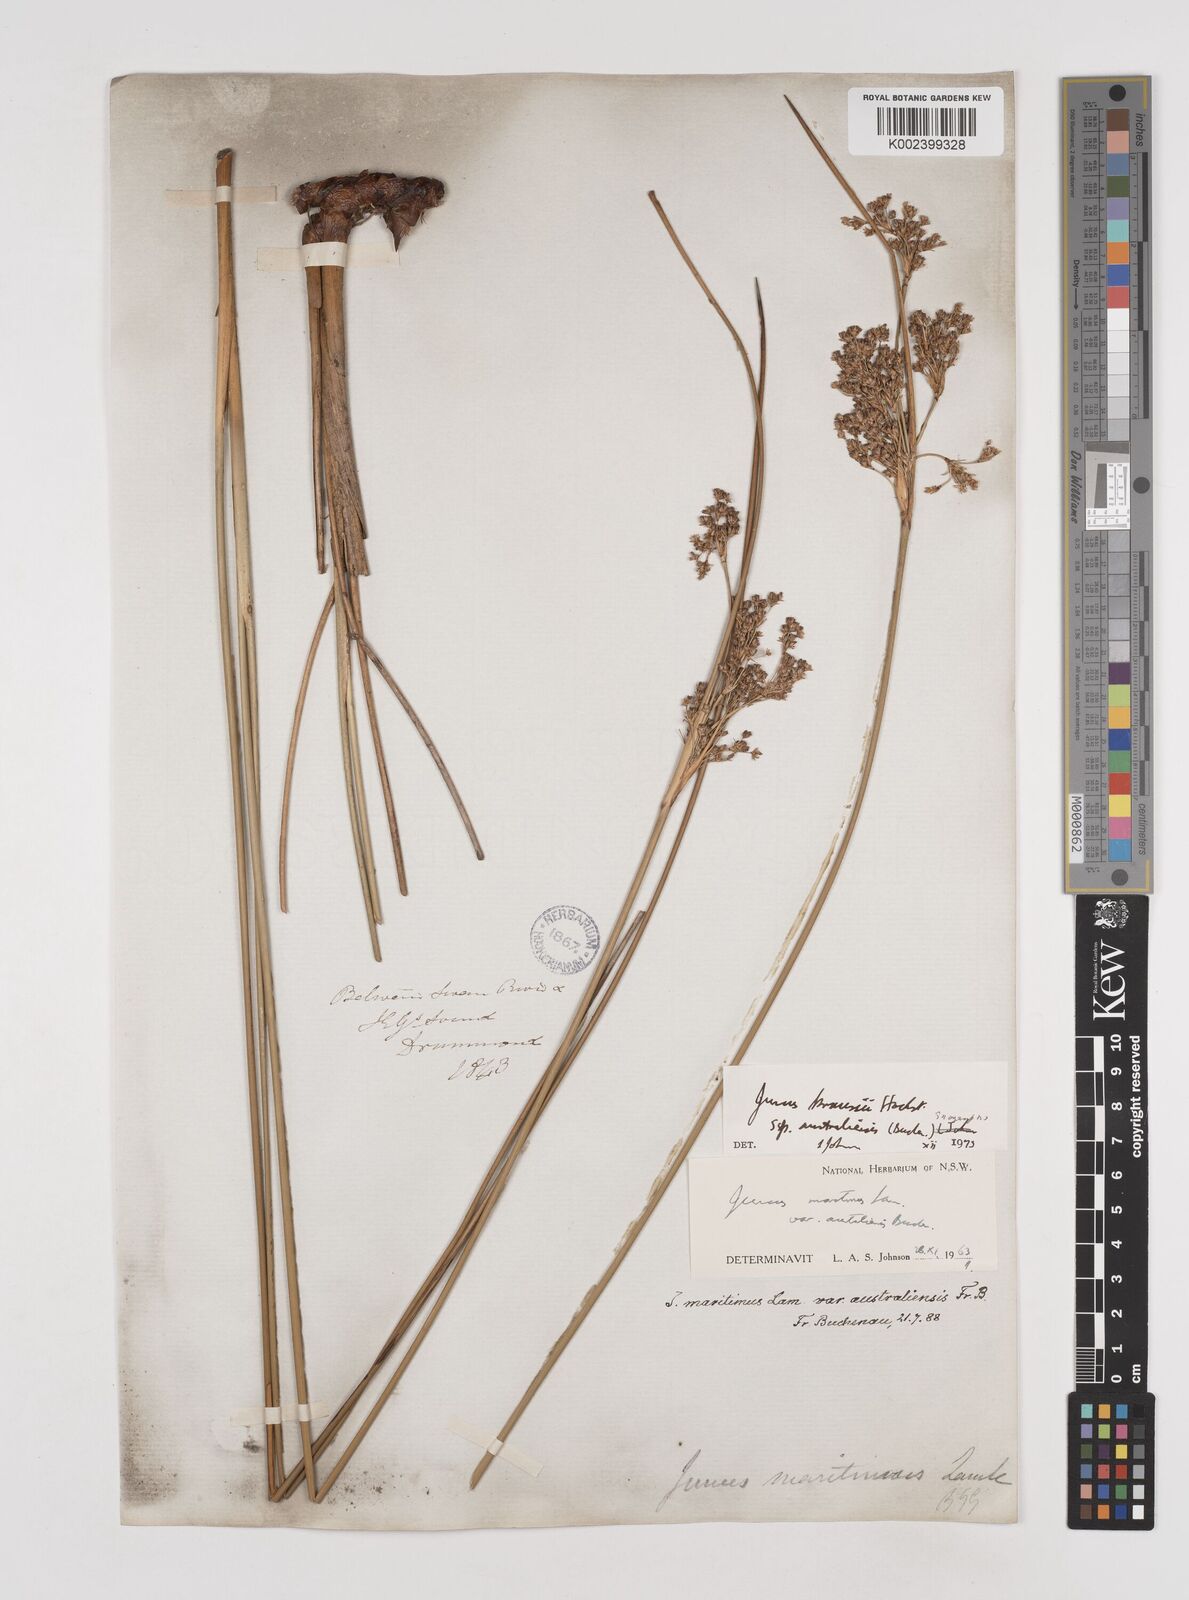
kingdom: Plantae
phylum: Tracheophyta
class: Liliopsida
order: Poales
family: Juncaceae
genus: Juncus
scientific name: Juncus kraussii
